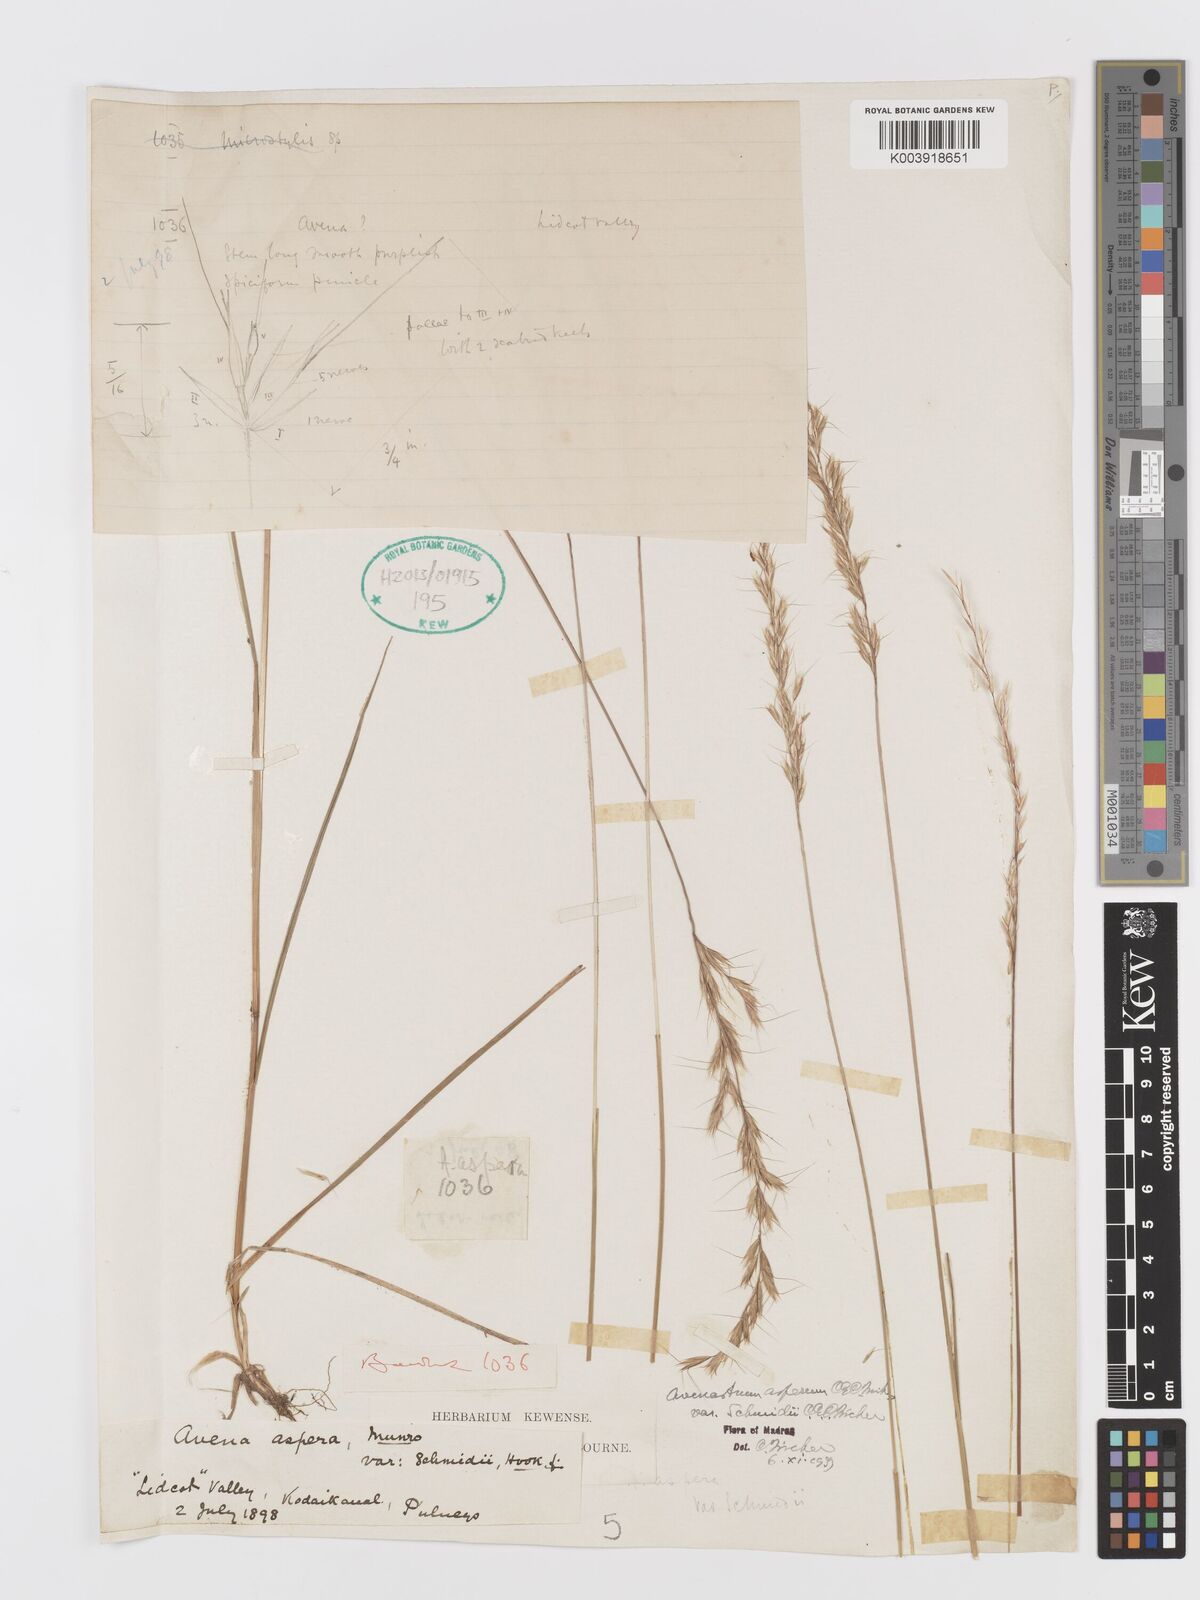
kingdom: Plantae
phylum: Tracheophyta
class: Liliopsida
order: Poales
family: Poaceae
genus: Trisetopsis
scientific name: Trisetopsis aspera
